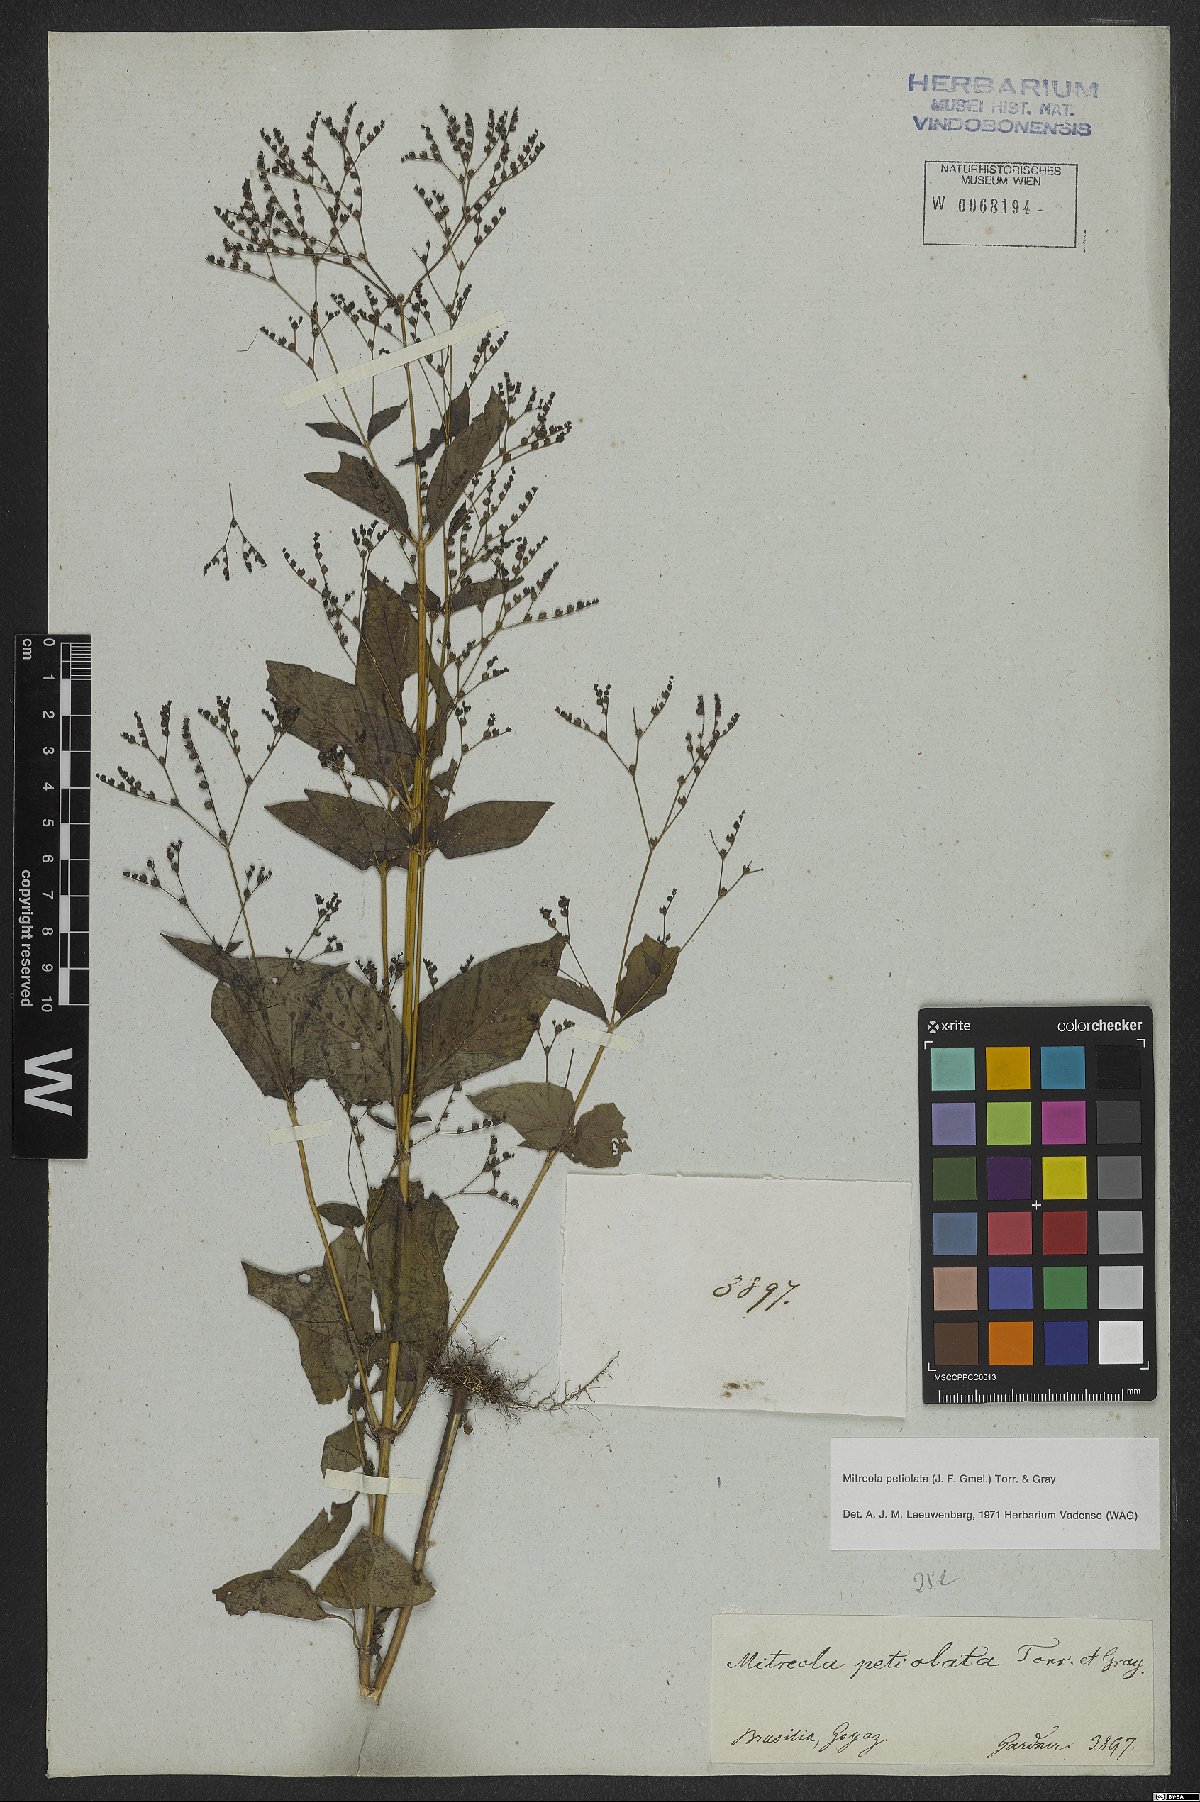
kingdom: Plantae
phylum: Tracheophyta
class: Magnoliopsida
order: Gentianales
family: Loganiaceae
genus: Mitreola
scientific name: Mitreola petiolata
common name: Lax hornpod
